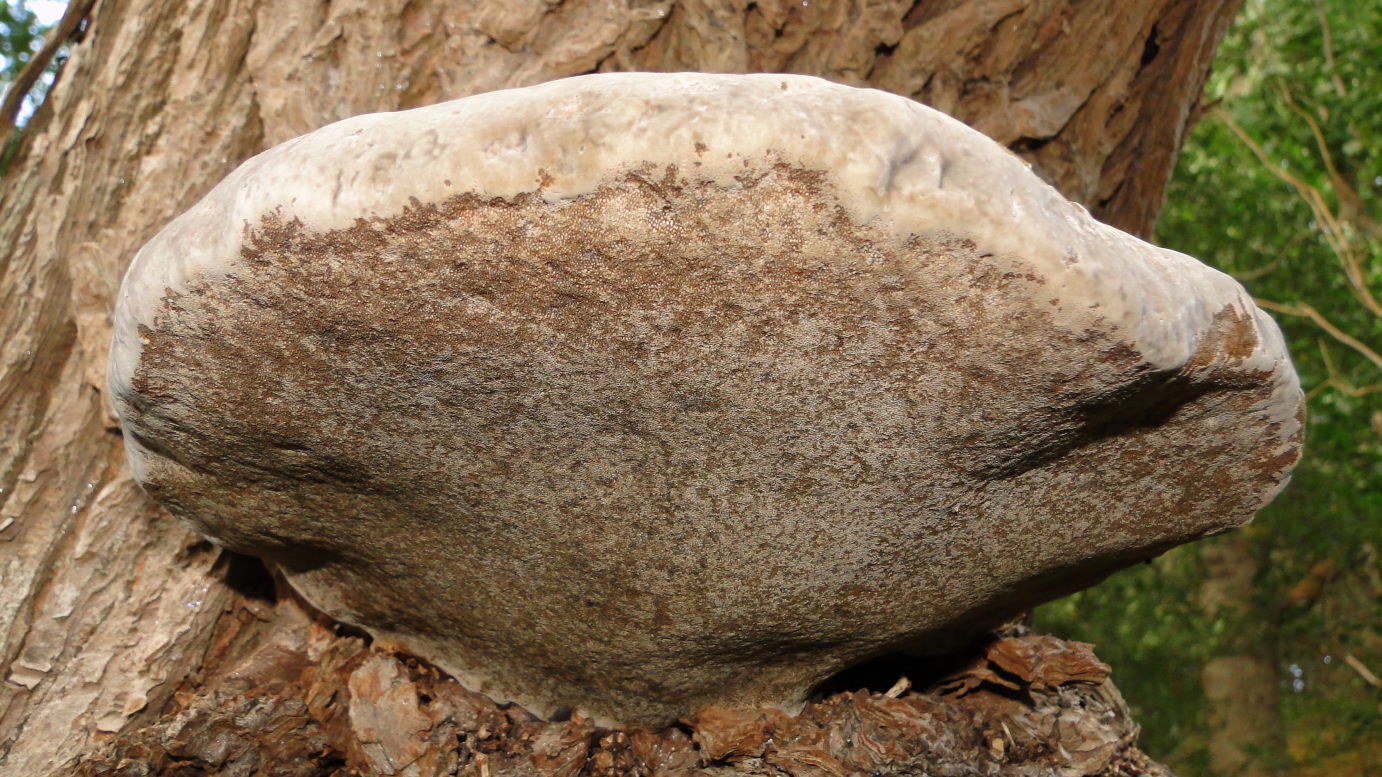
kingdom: Fungi
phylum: Basidiomycota
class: Agaricomycetes
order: Polyporales
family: Polyporaceae
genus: Fomes
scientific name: Fomes fomentarius
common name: tøndersvamp
